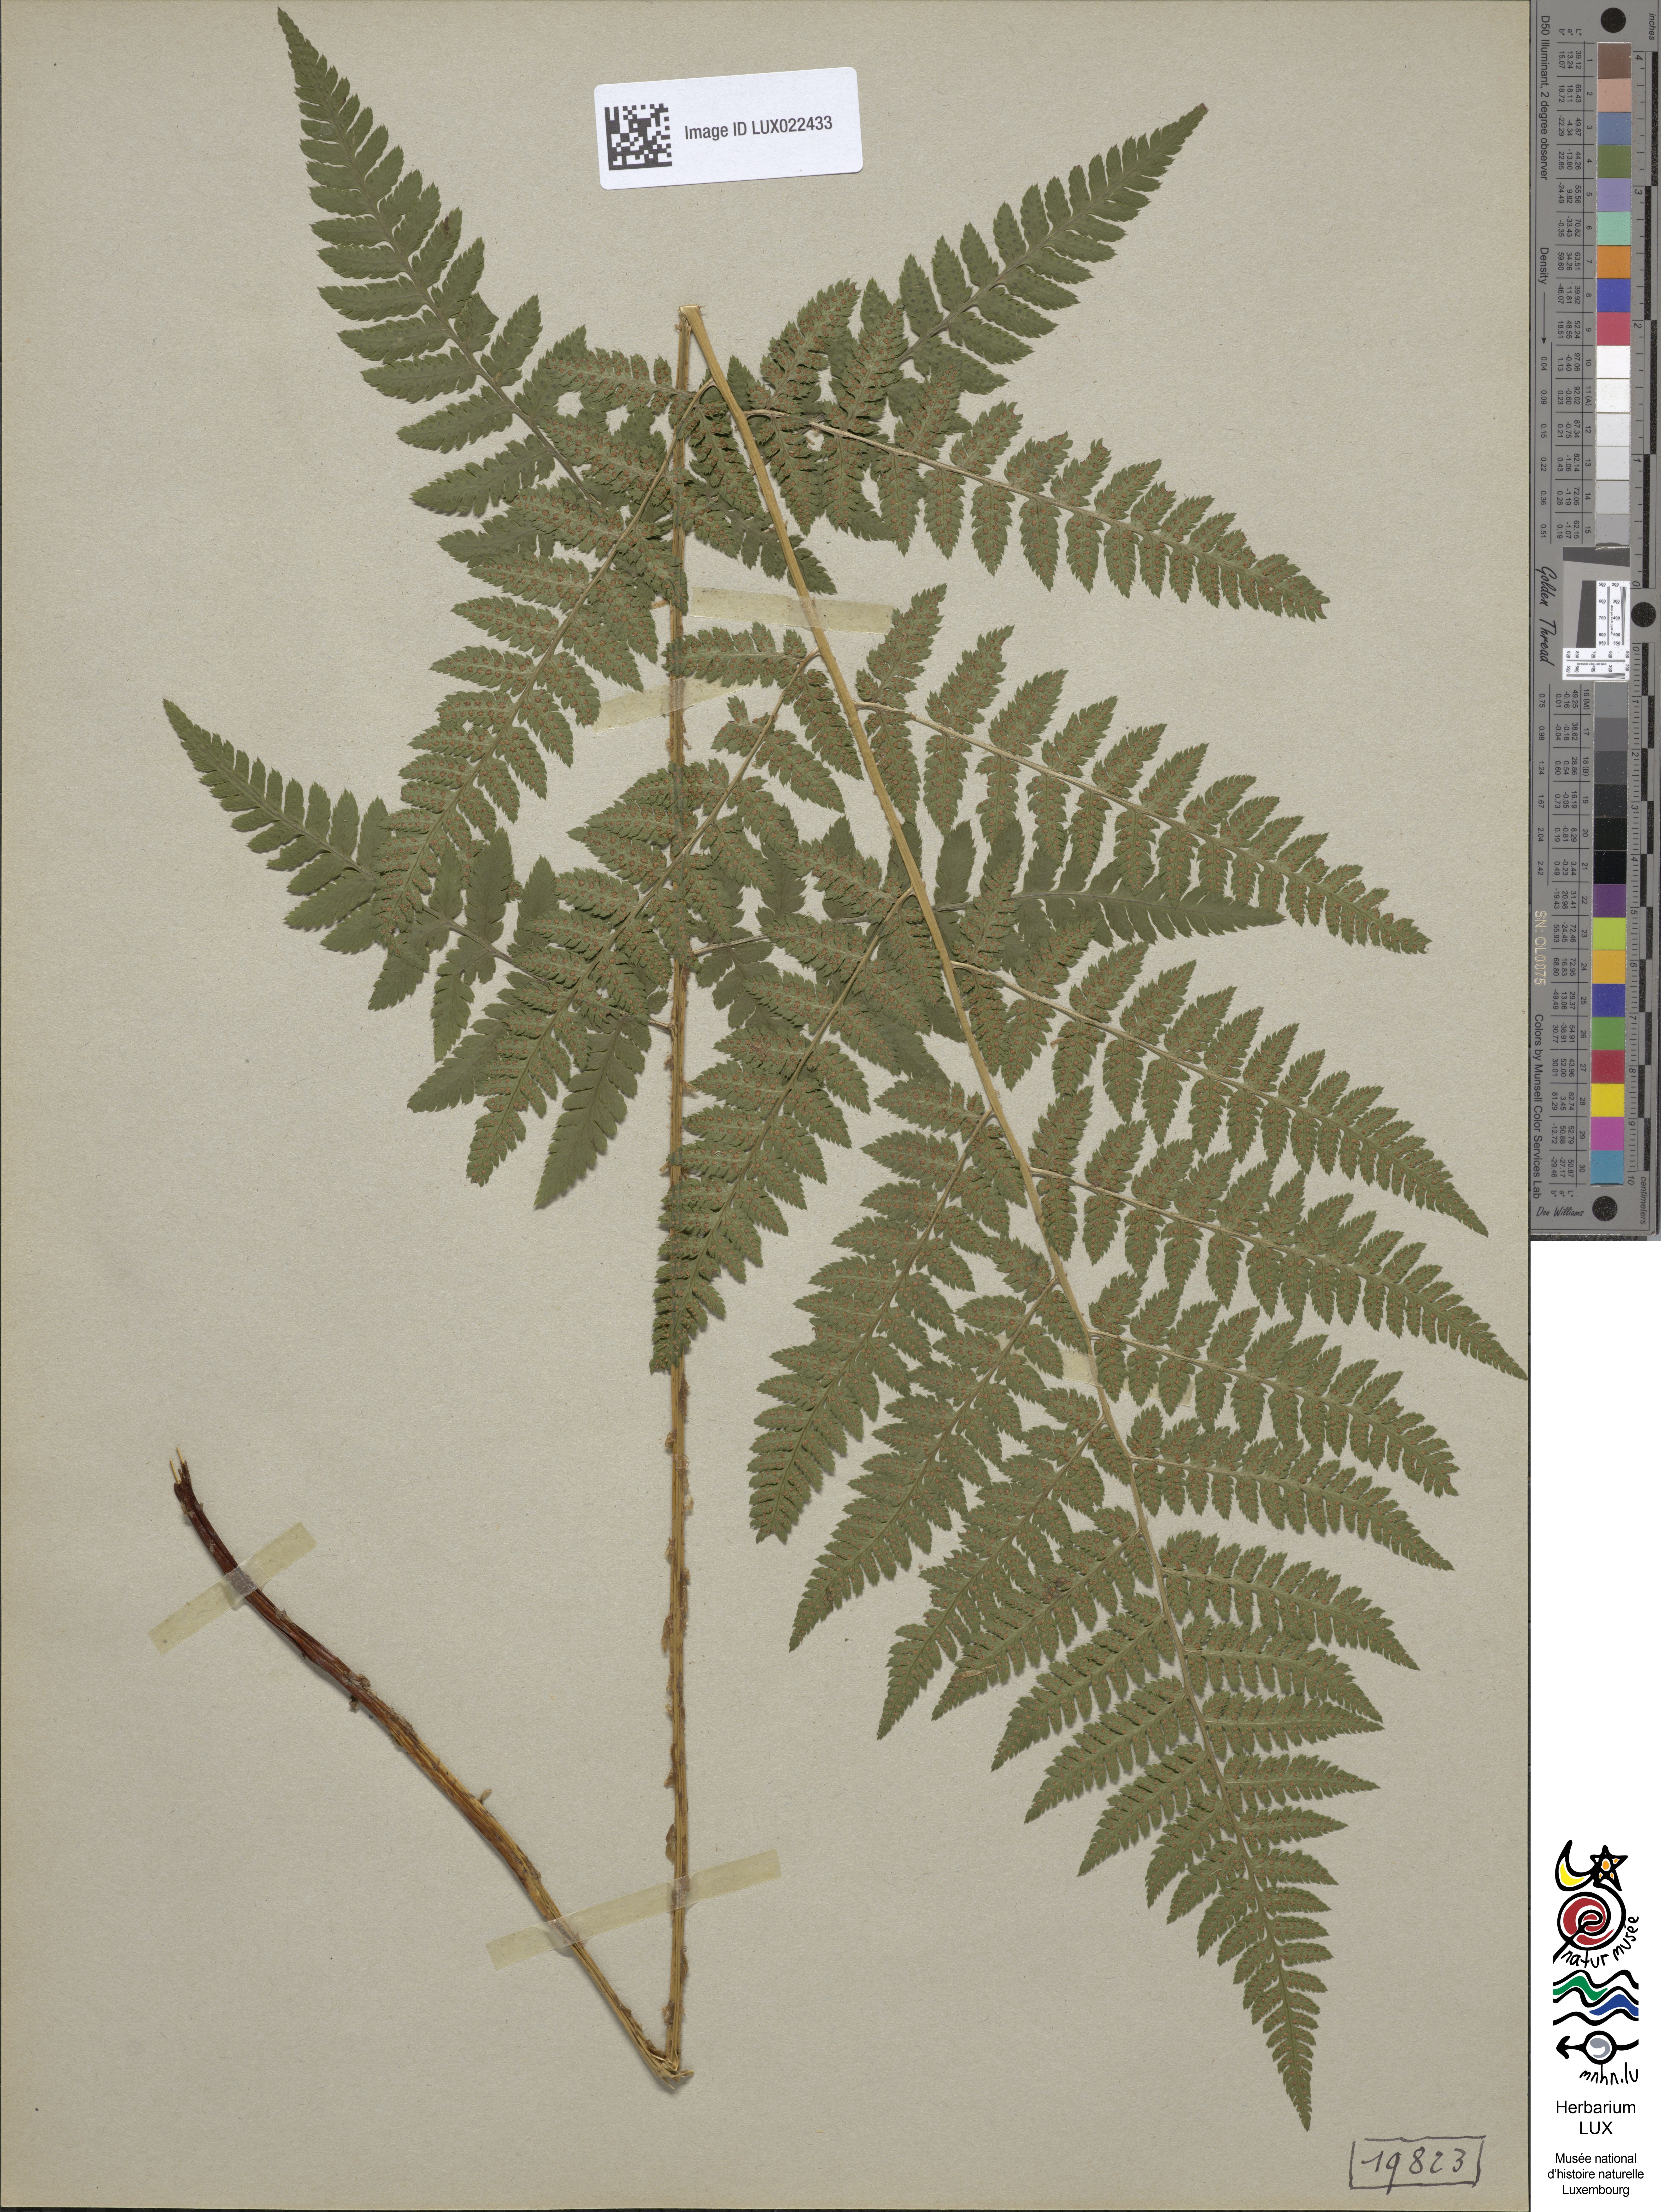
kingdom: Plantae
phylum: Tracheophyta
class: Polypodiopsida
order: Polypodiales
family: Dryopteridaceae
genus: Dryopteris
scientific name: Dryopteris carthusiana
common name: Narrow buckler-fern
